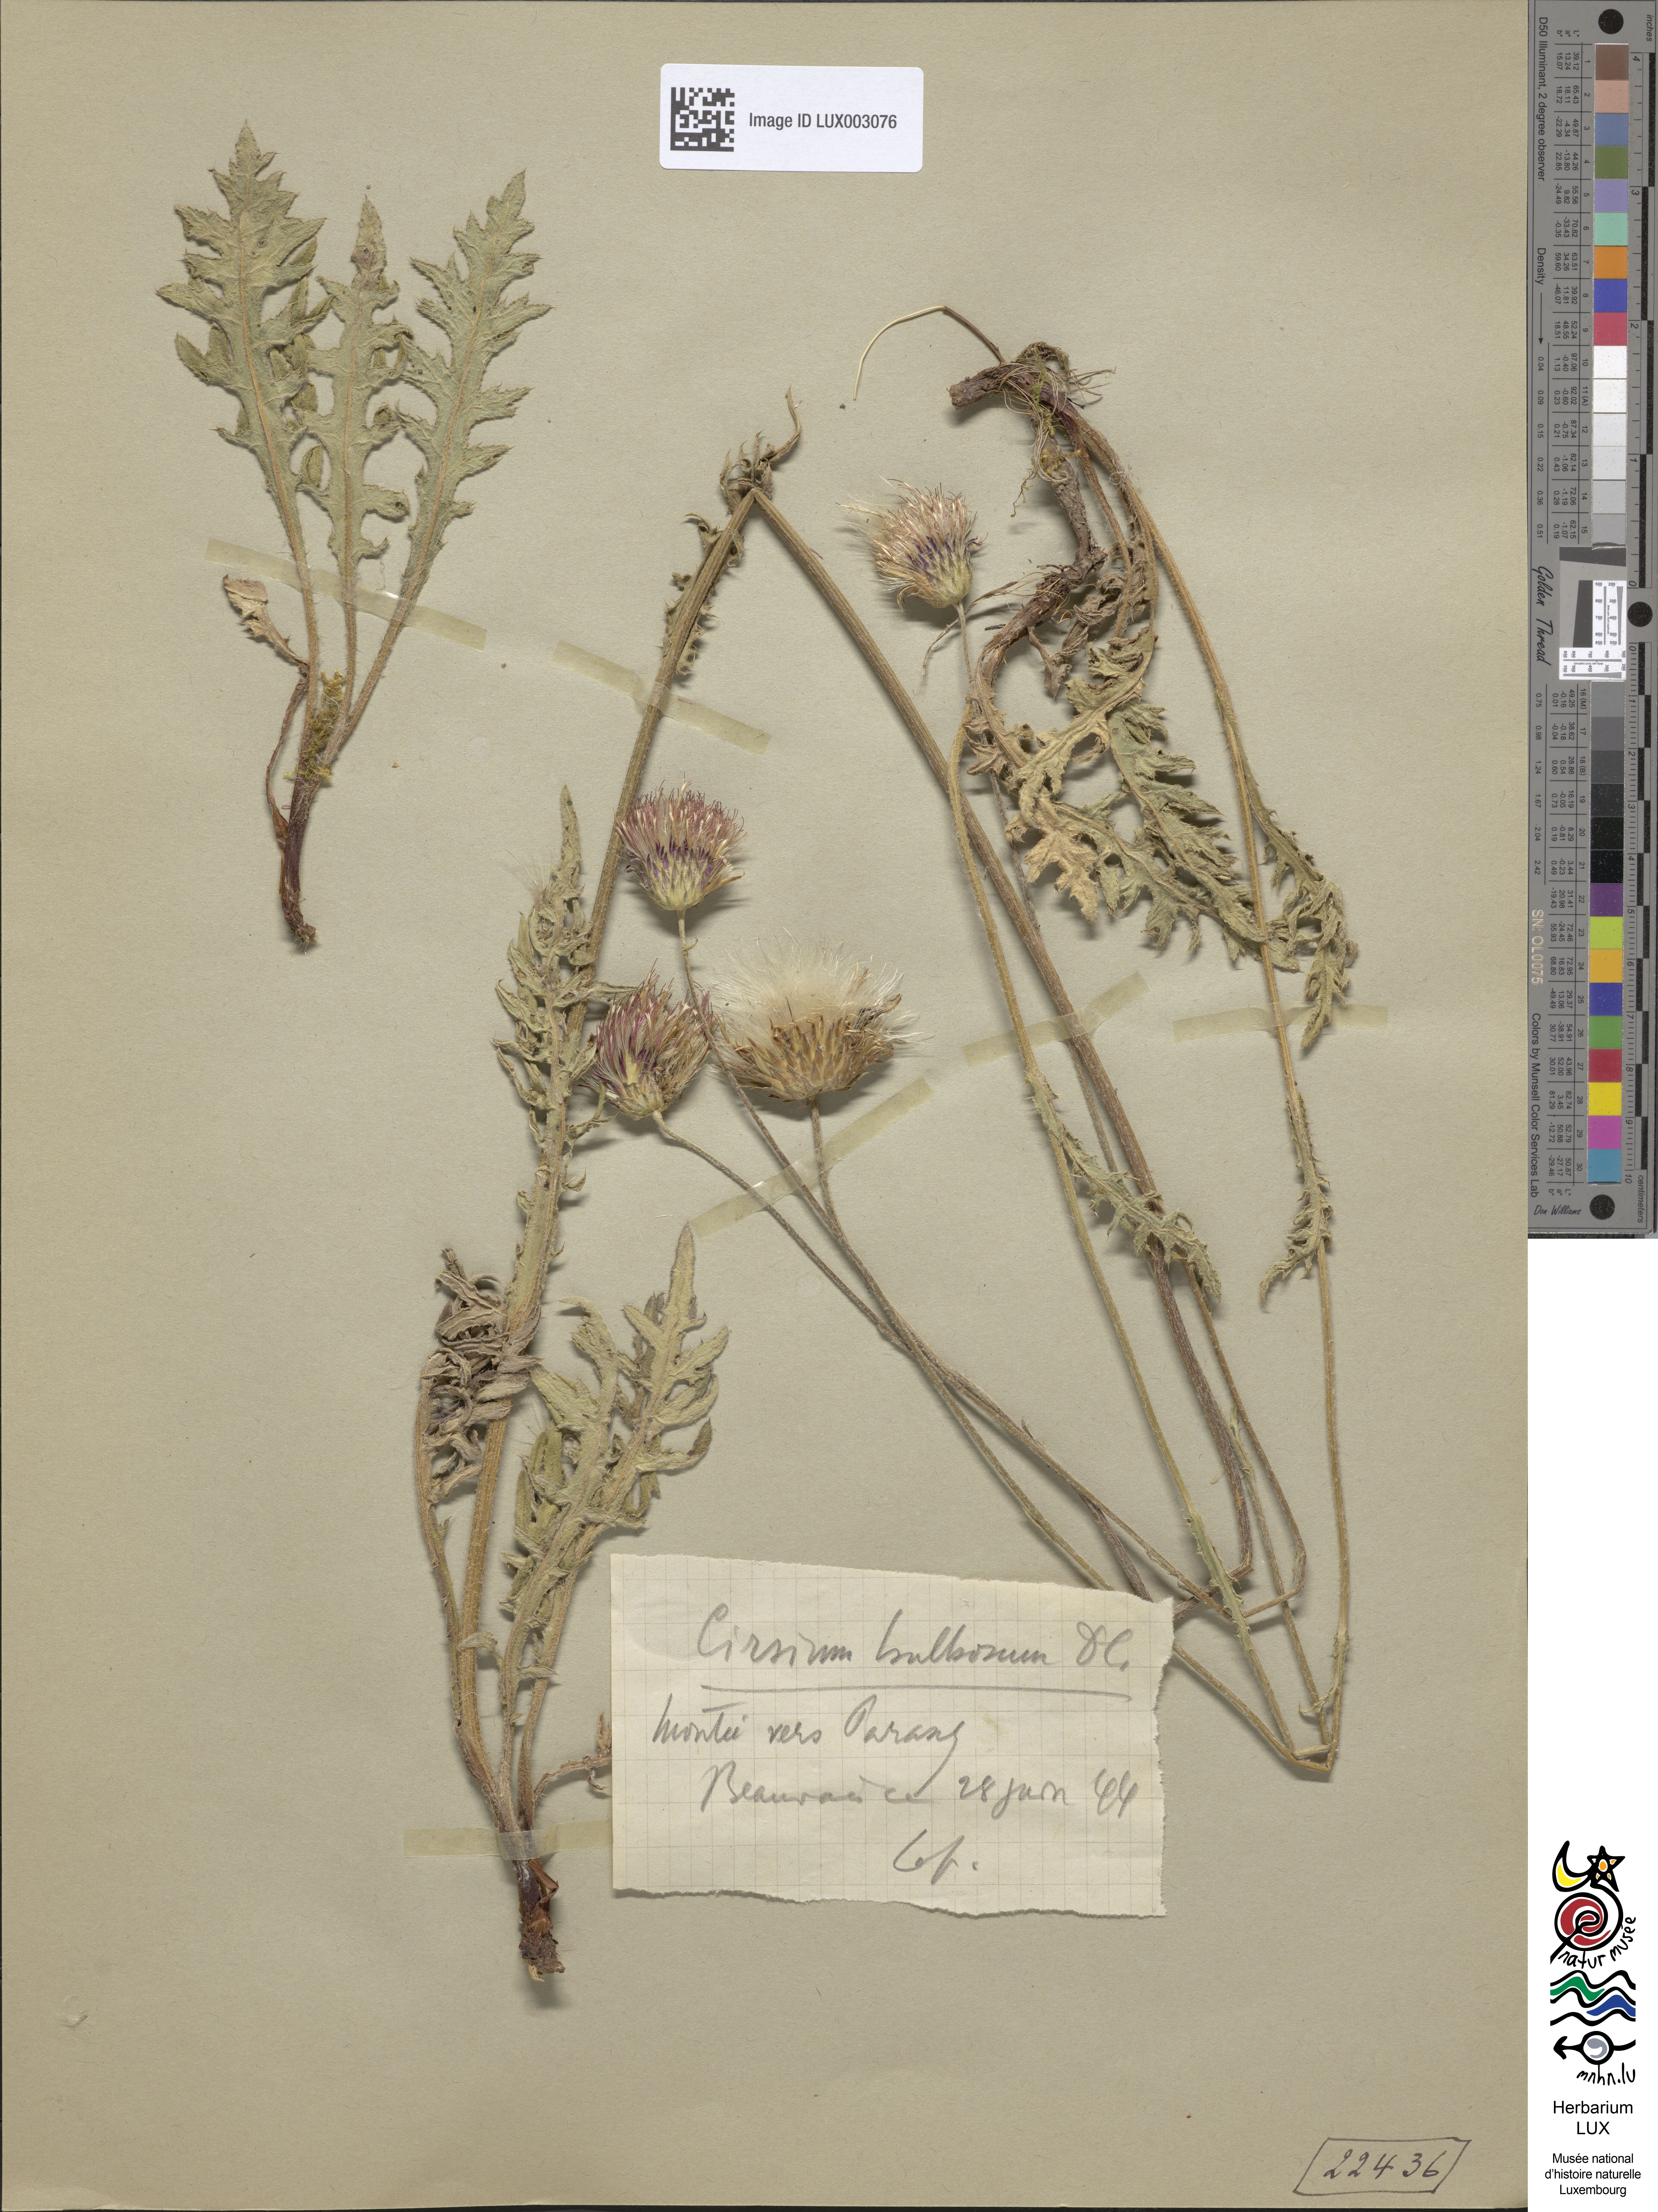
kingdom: Plantae
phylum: Tracheophyta
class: Magnoliopsida
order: Asterales
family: Asteraceae
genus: Cirsium
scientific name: Cirsium tuberosum
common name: Tuberous thistle
